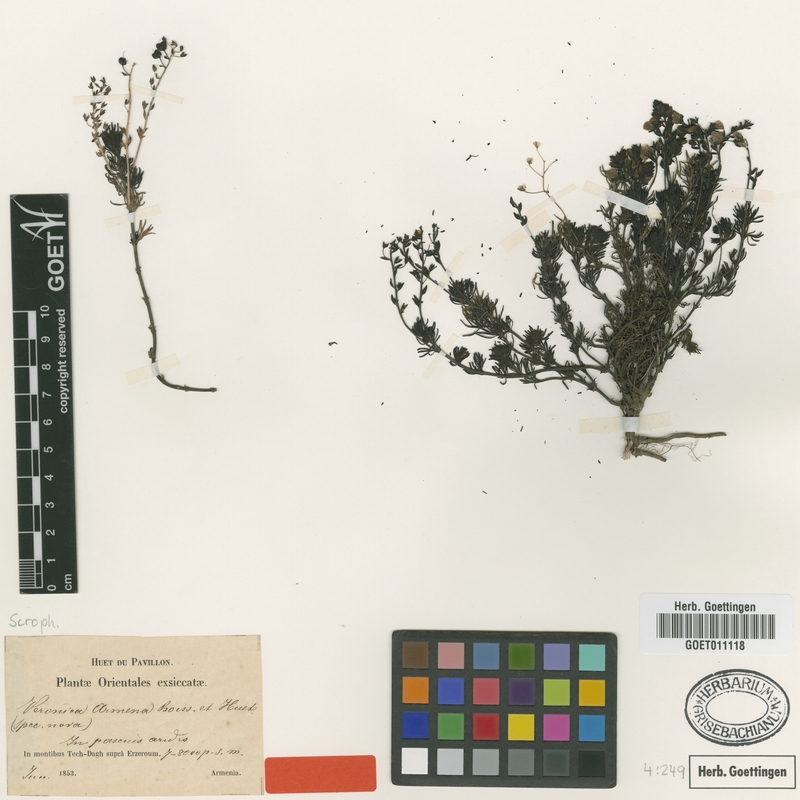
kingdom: Plantae
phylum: Tracheophyta
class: Magnoliopsida
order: Lamiales
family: Plantaginaceae
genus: Veronica
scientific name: Veronica armena
